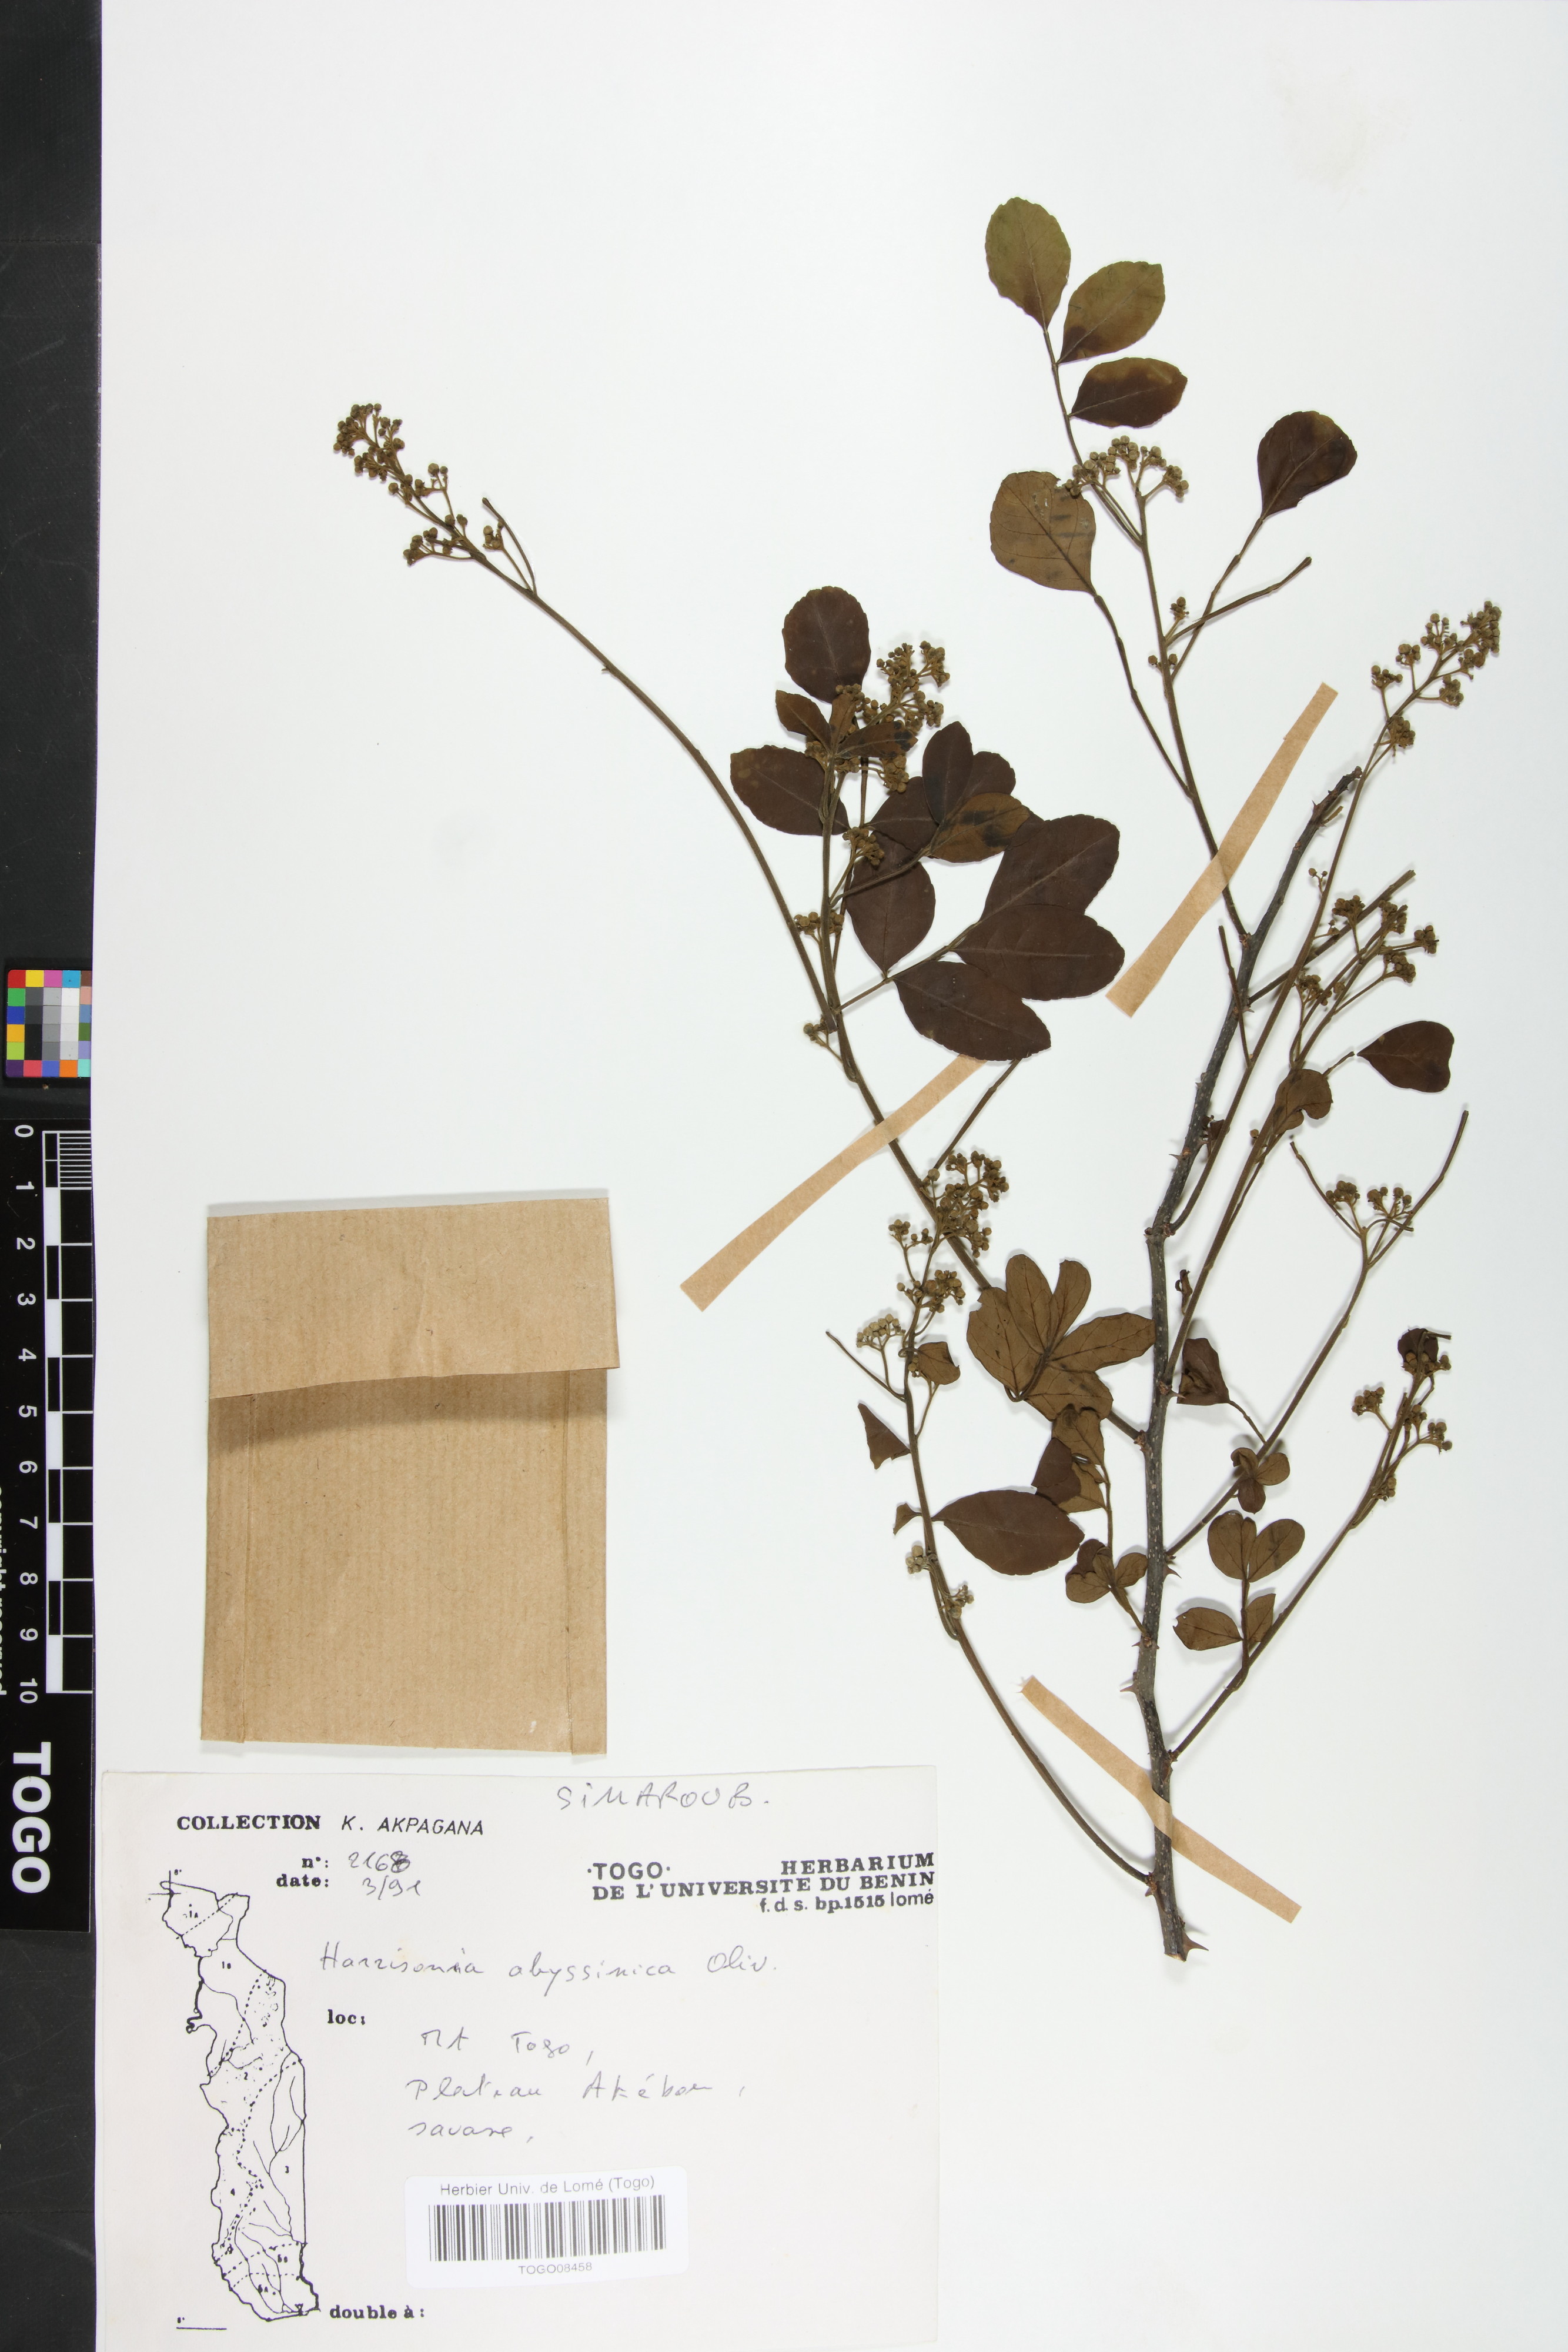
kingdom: Plantae
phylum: Tracheophyta
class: Magnoliopsida
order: Sapindales
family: Rutaceae
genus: Harrisonia
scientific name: Harrisonia abyssinica
